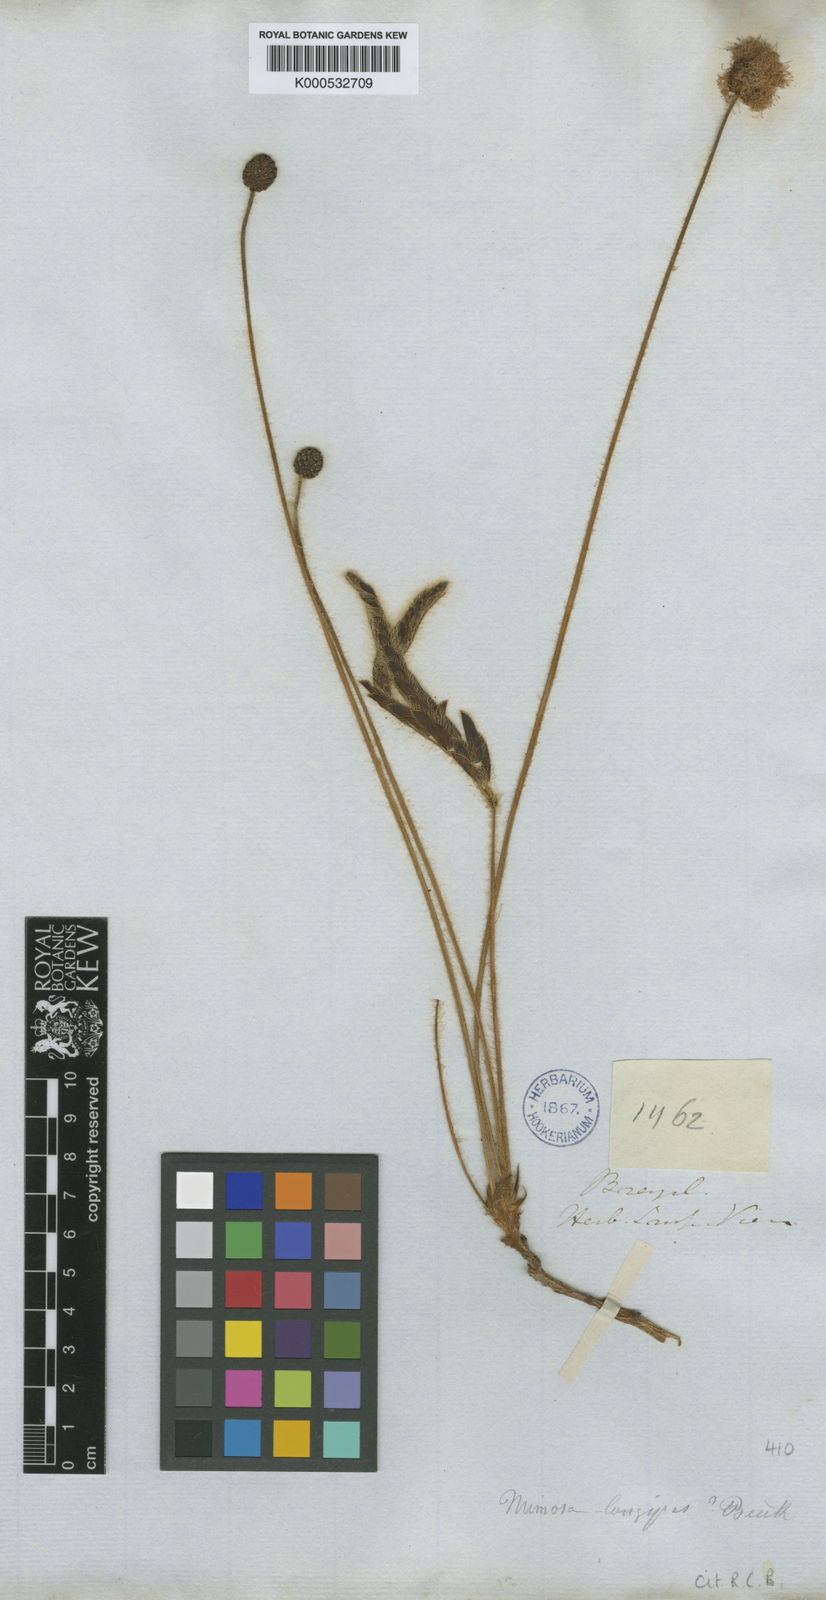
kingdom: Plantae
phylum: Tracheophyta
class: Magnoliopsida
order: Fabales
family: Fabaceae
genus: Mimosa
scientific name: Mimosa longipes
